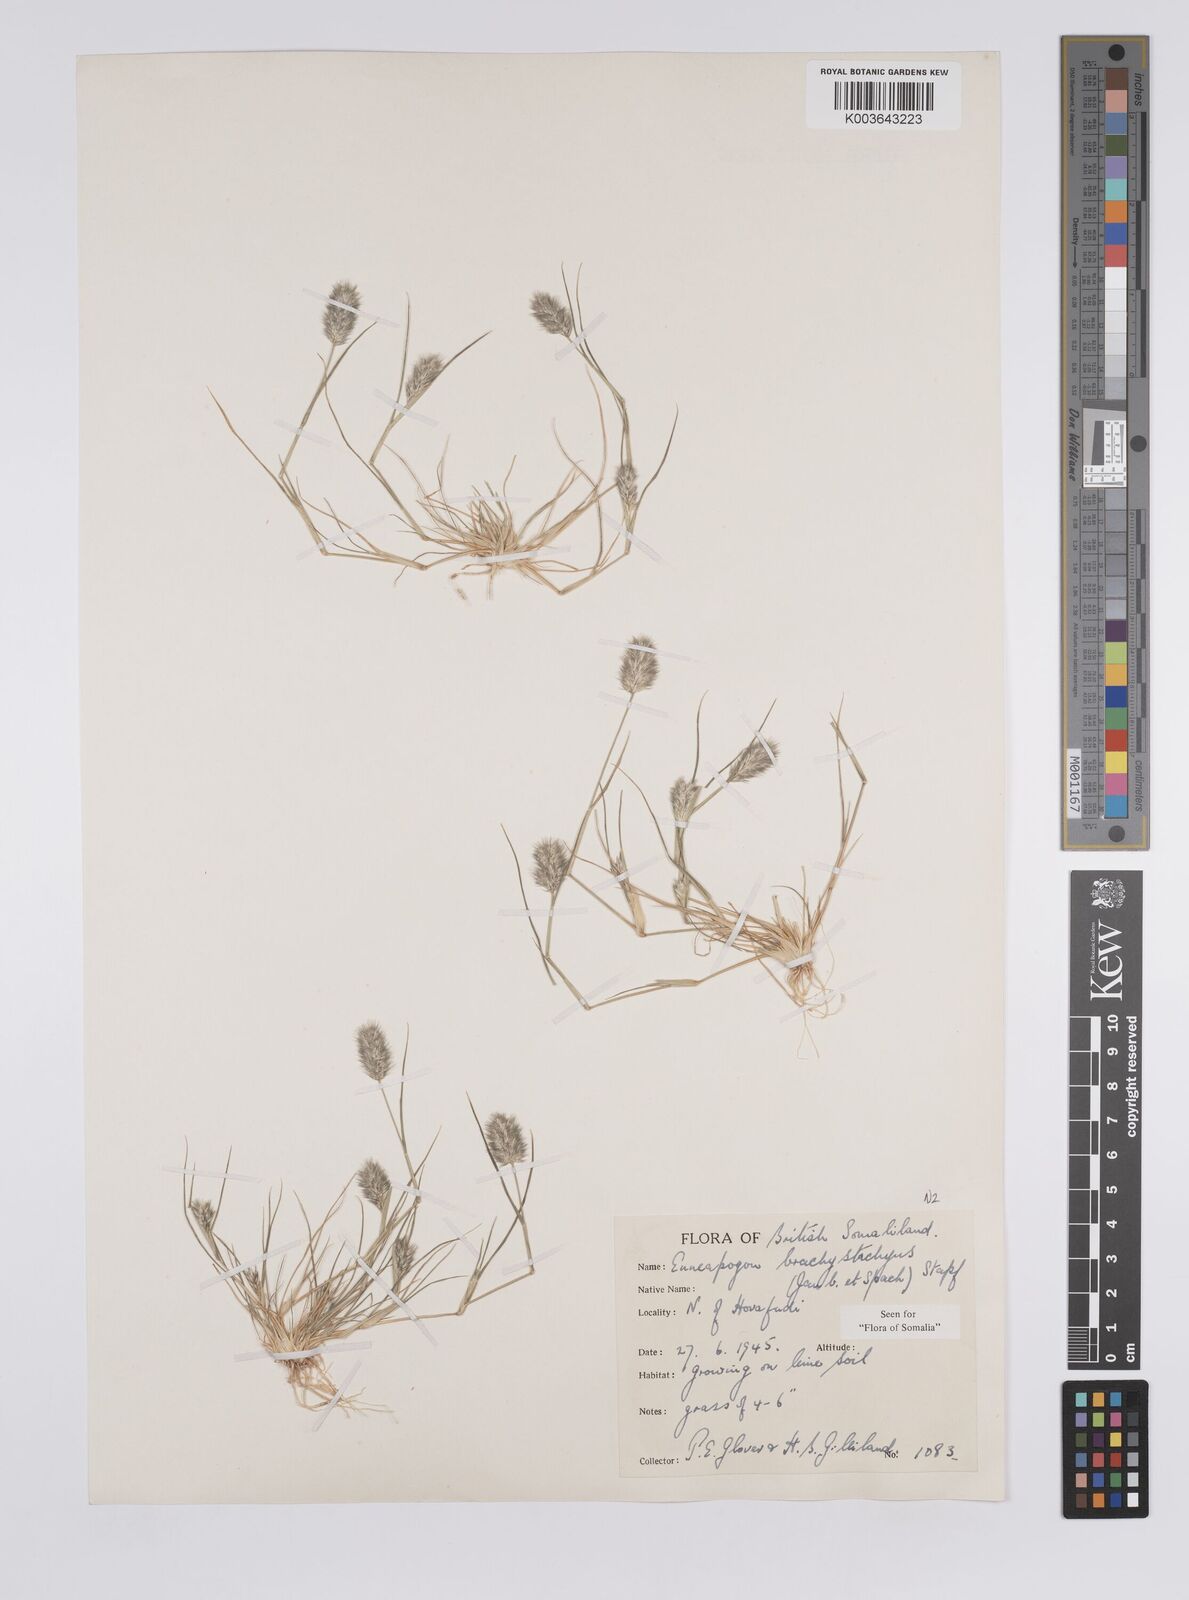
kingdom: Plantae
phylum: Tracheophyta
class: Liliopsida
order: Poales
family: Poaceae
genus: Enneapogon
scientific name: Enneapogon desvauxii
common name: Feather pappus grass
